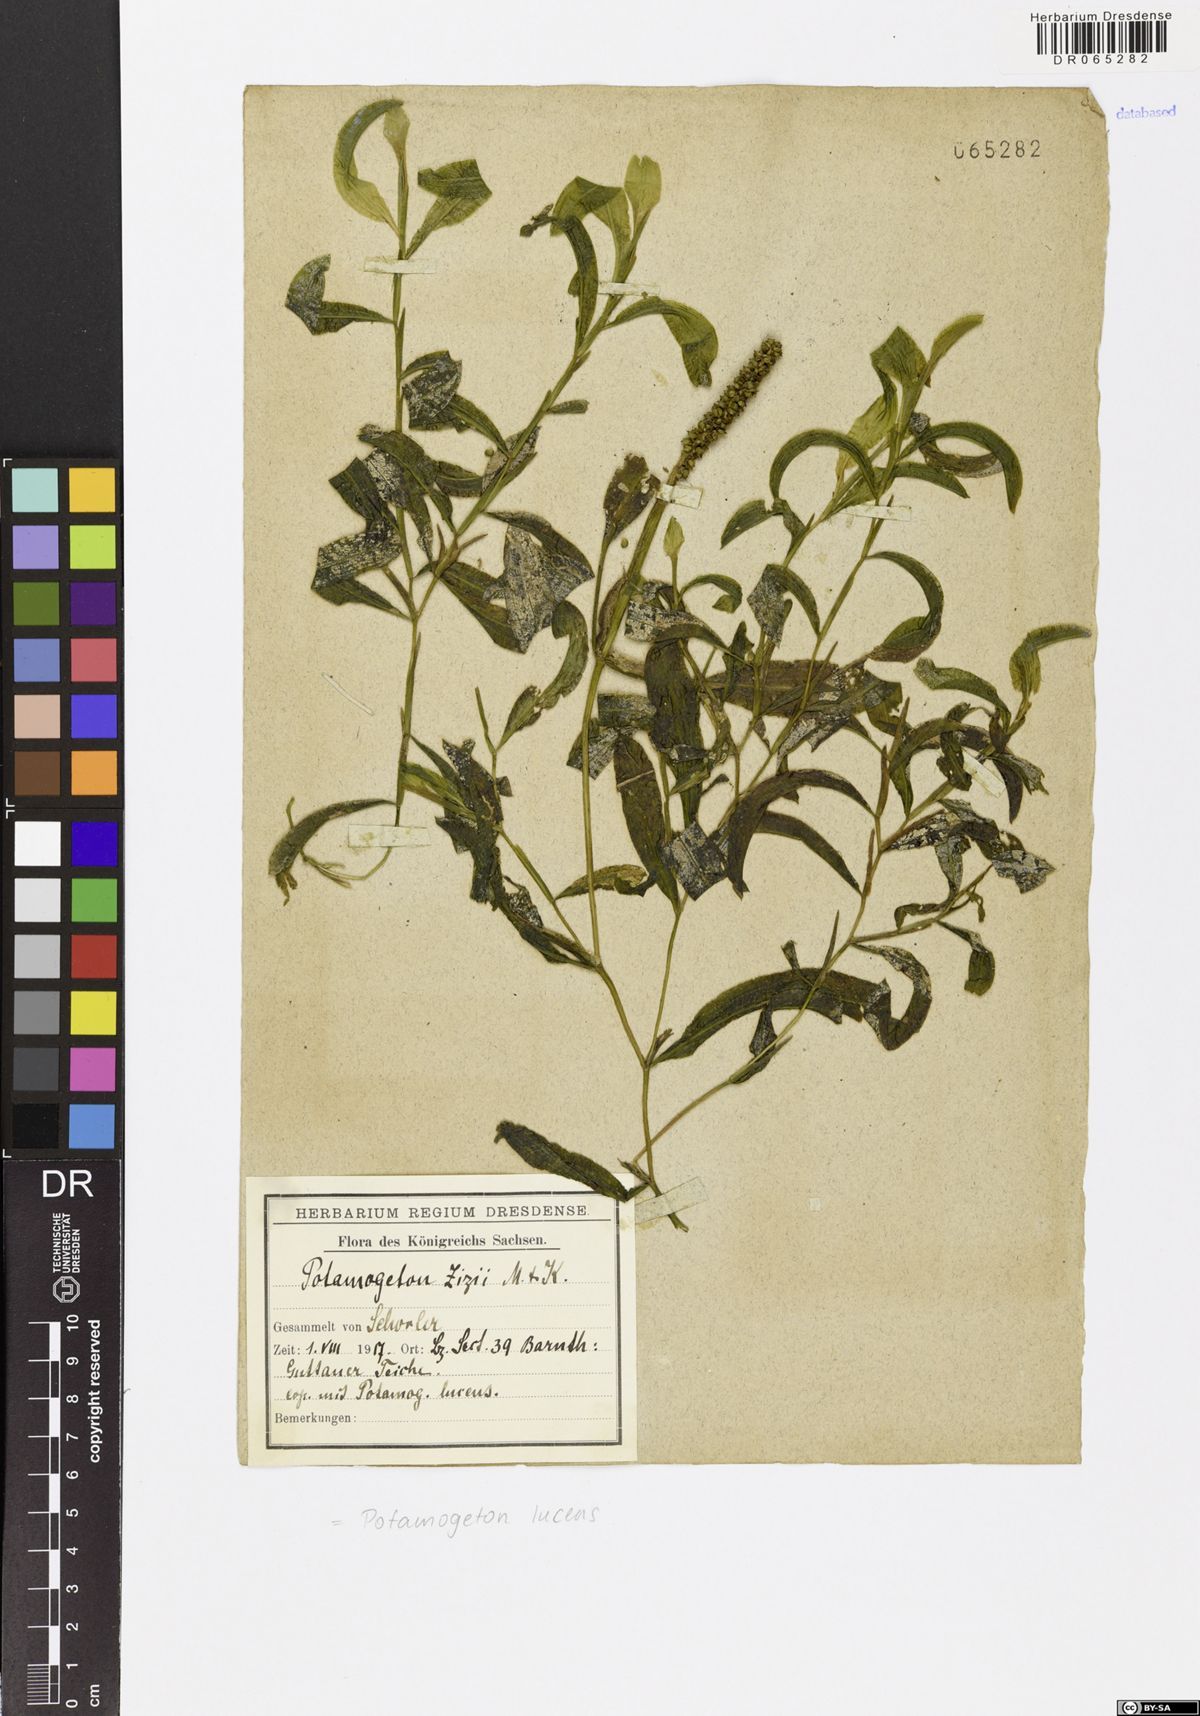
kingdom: Plantae
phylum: Tracheophyta
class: Liliopsida
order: Alismatales
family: Potamogetonaceae
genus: Potamogeton
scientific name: Potamogeton lucens
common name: Shining pondweed
